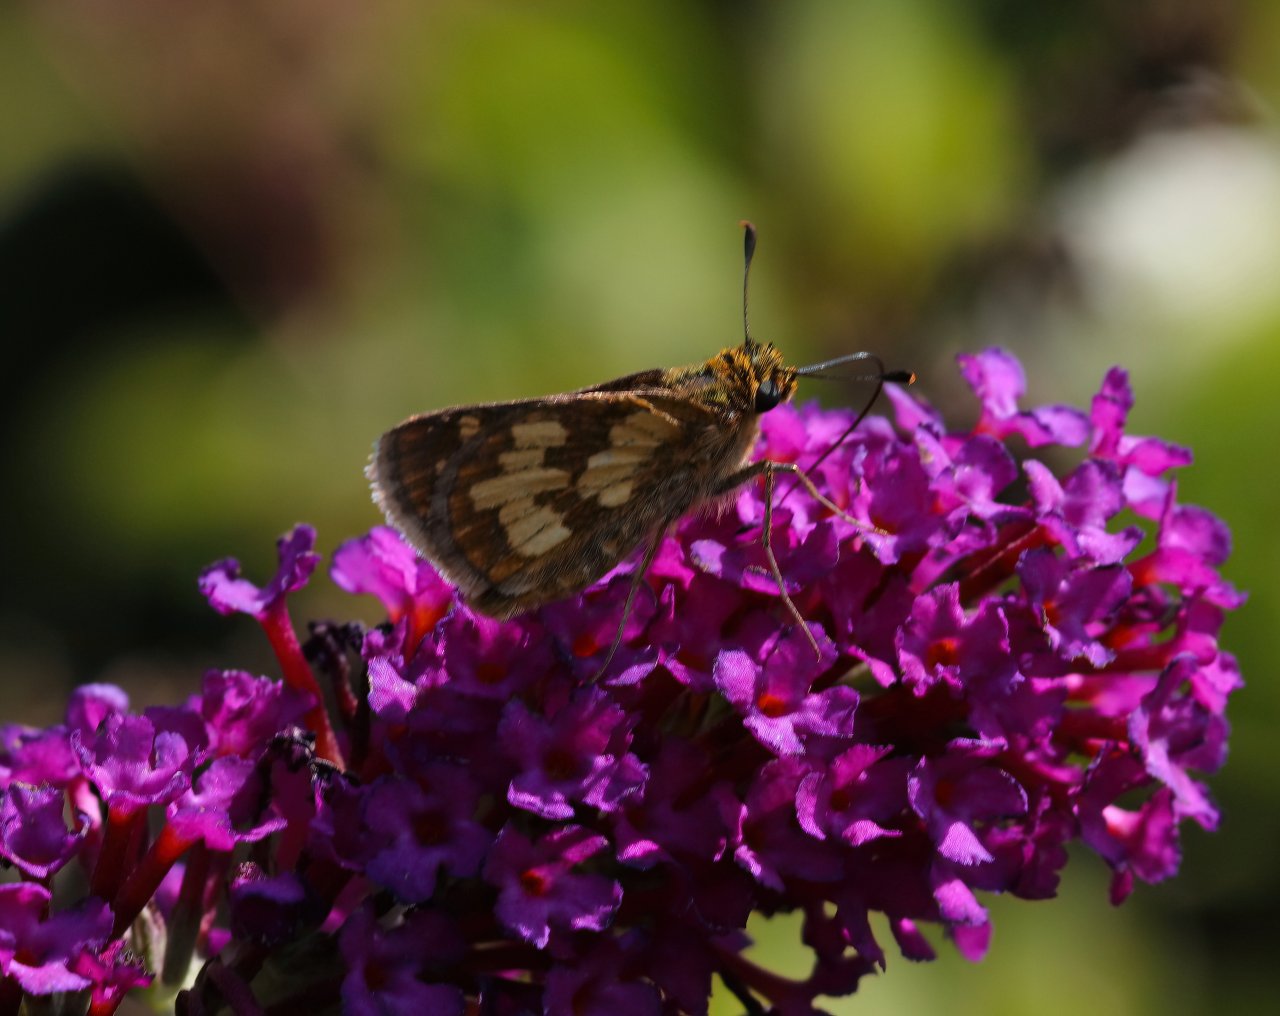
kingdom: Animalia
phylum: Arthropoda
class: Insecta
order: Lepidoptera
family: Hesperiidae
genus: Polites
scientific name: Polites coras
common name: Peck's Skipper
